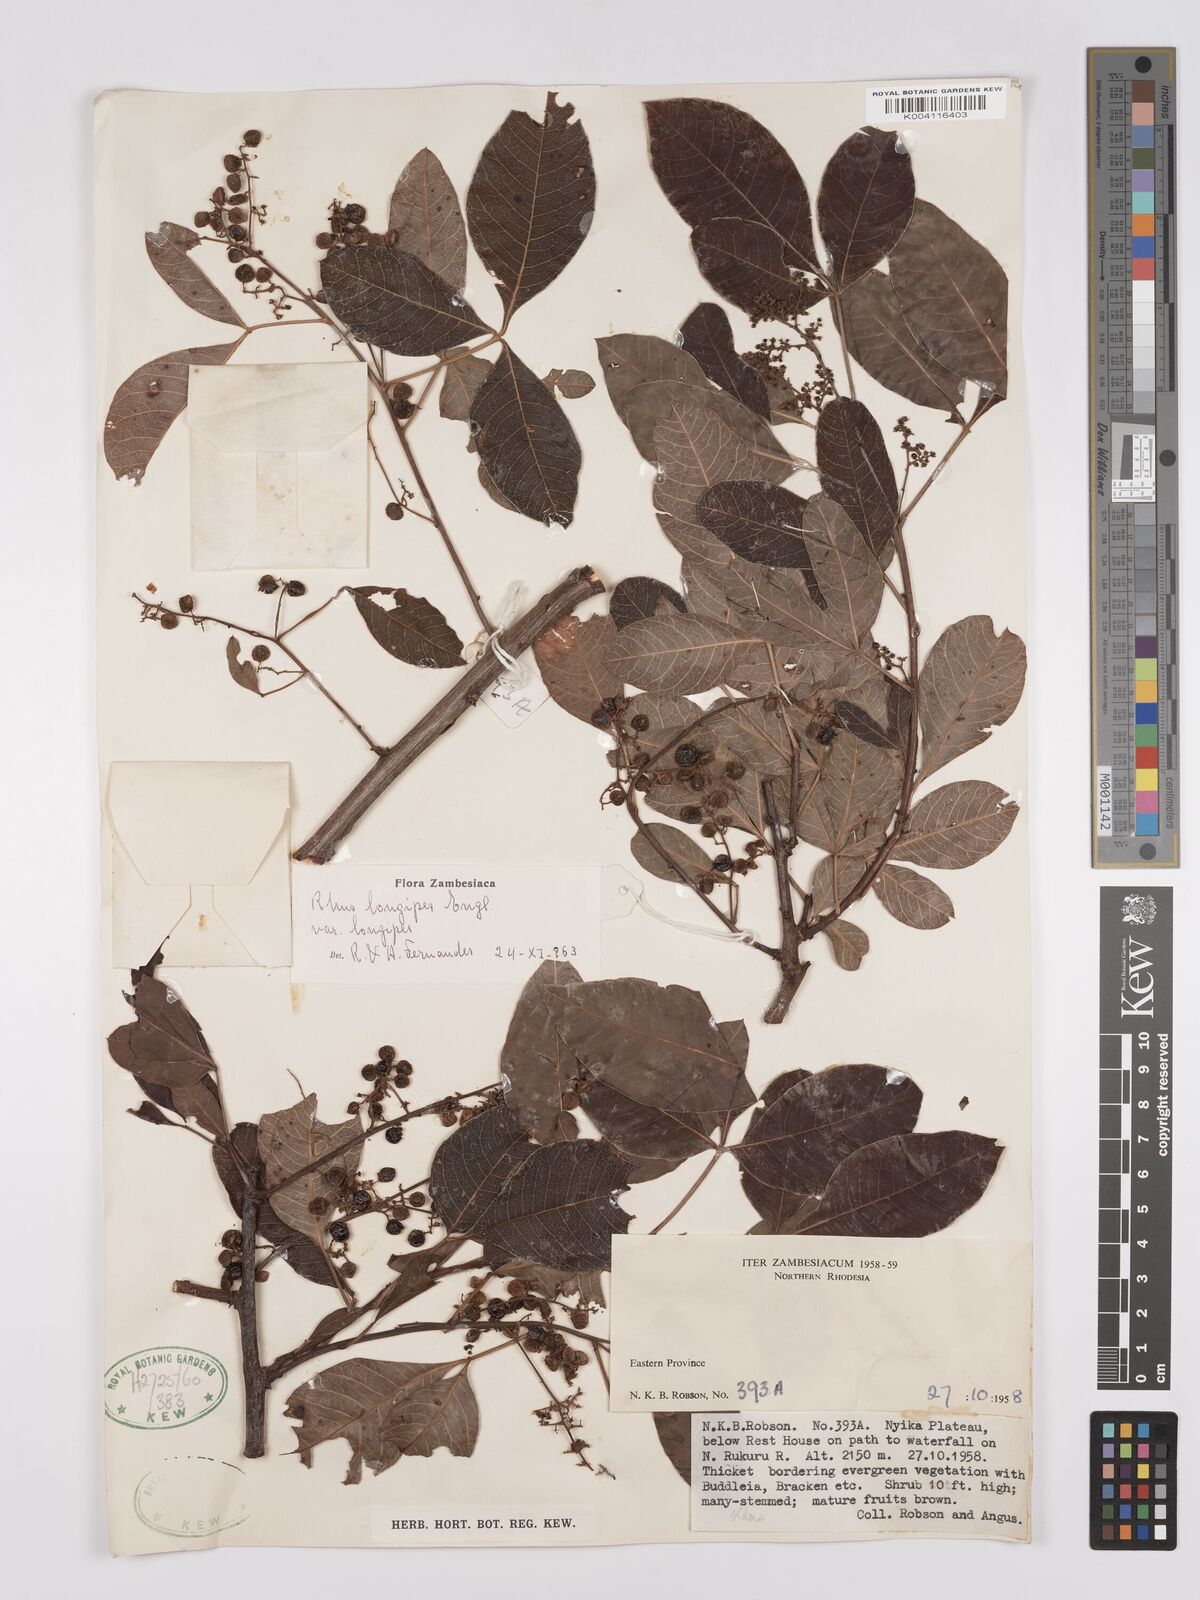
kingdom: Plantae
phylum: Tracheophyta
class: Magnoliopsida
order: Sapindales
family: Anacardiaceae
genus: Searsia
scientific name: Searsia longipes
